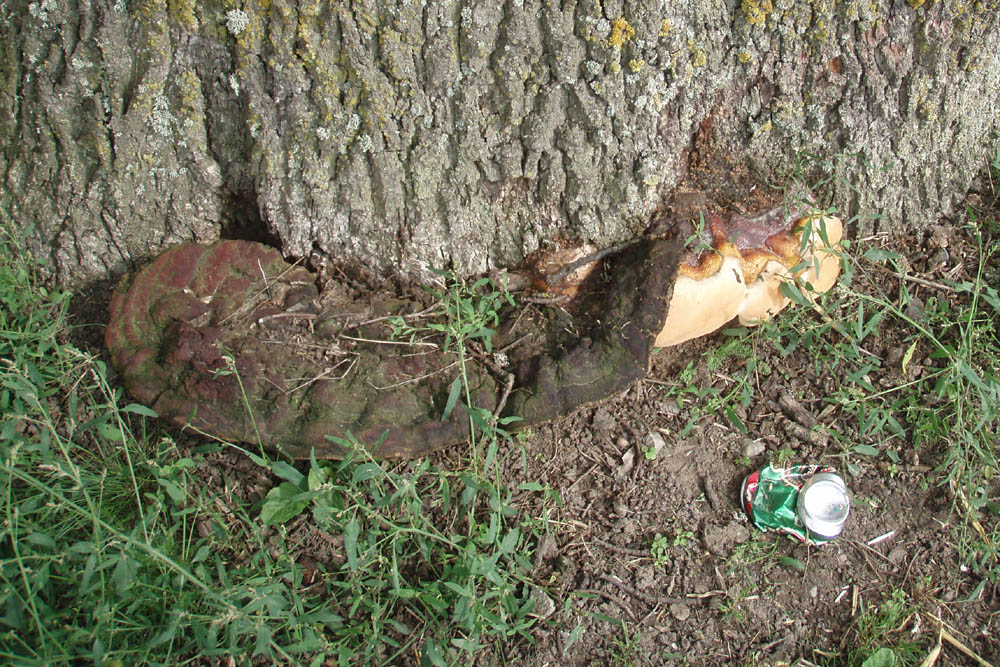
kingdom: Fungi
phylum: Basidiomycota
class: Agaricomycetes
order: Polyporales
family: Polyporaceae
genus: Ganoderma
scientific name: Ganoderma resinaceum
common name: gyldenbrun lakporesvamp
